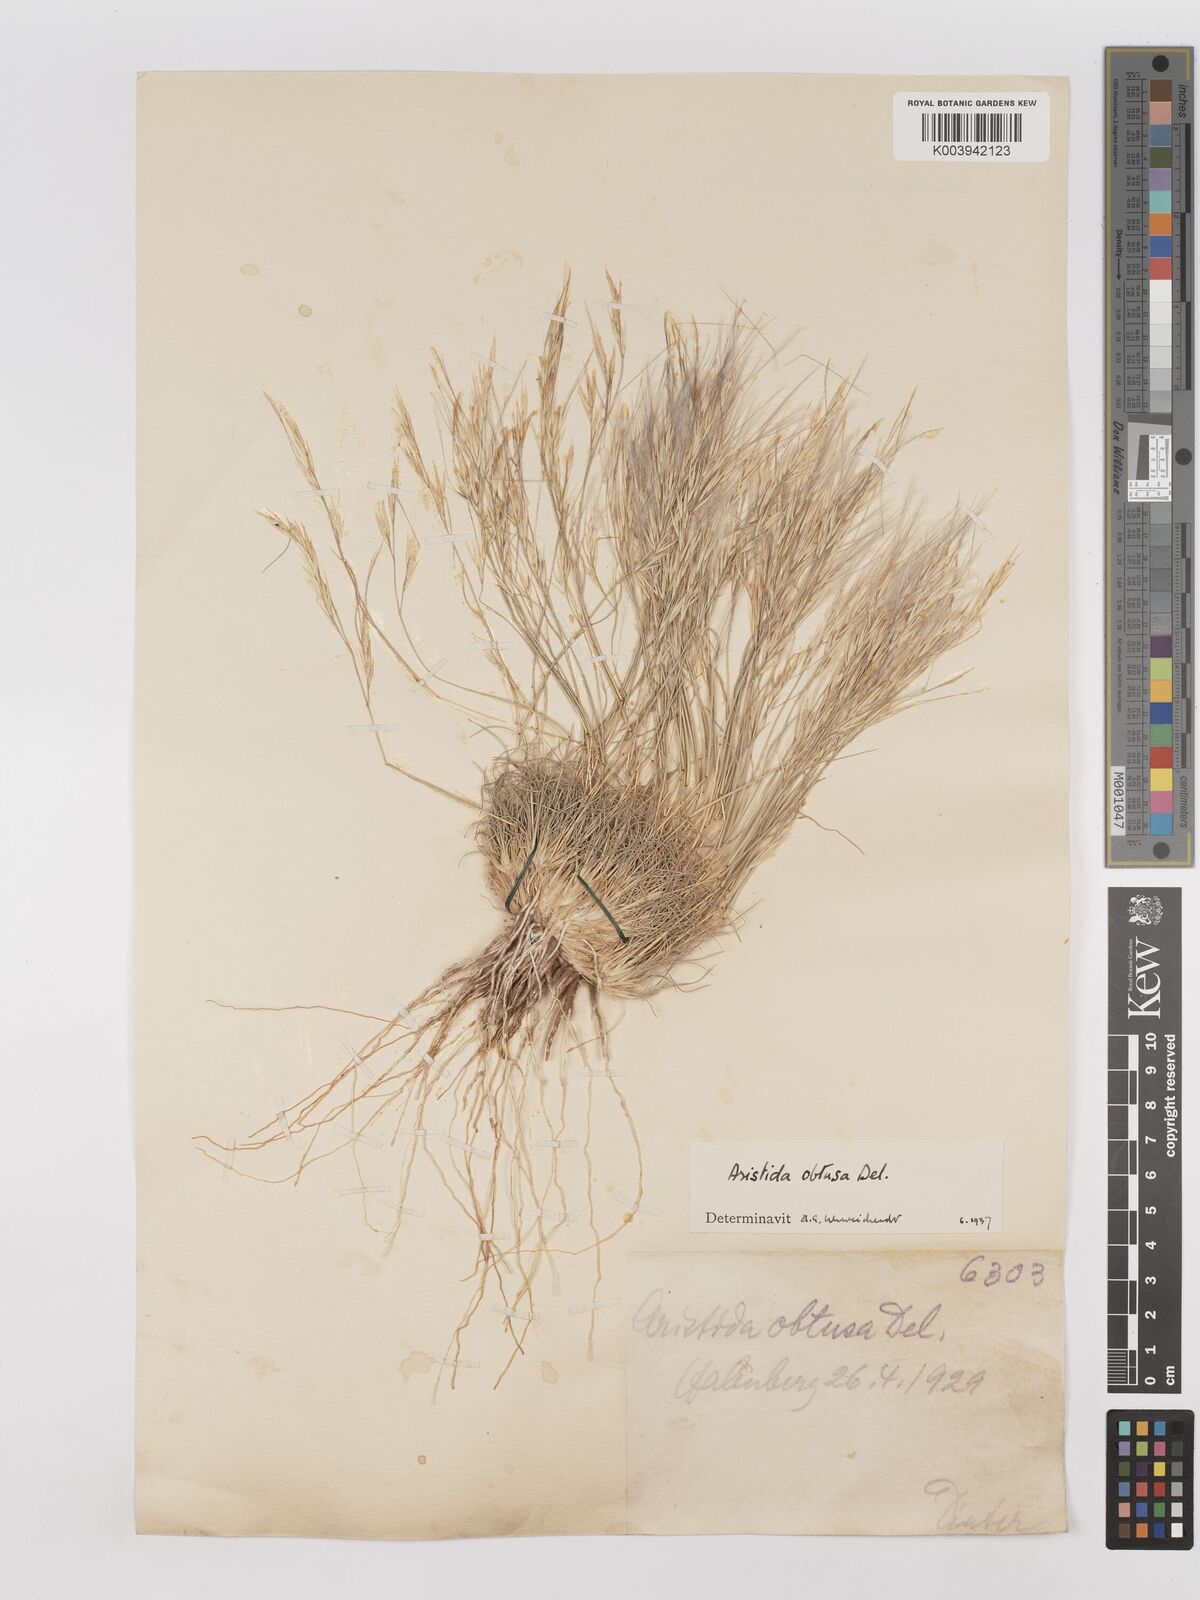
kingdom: Plantae
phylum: Tracheophyta
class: Liliopsida
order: Poales
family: Poaceae
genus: Stipagrostis
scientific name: Stipagrostis obtusa
